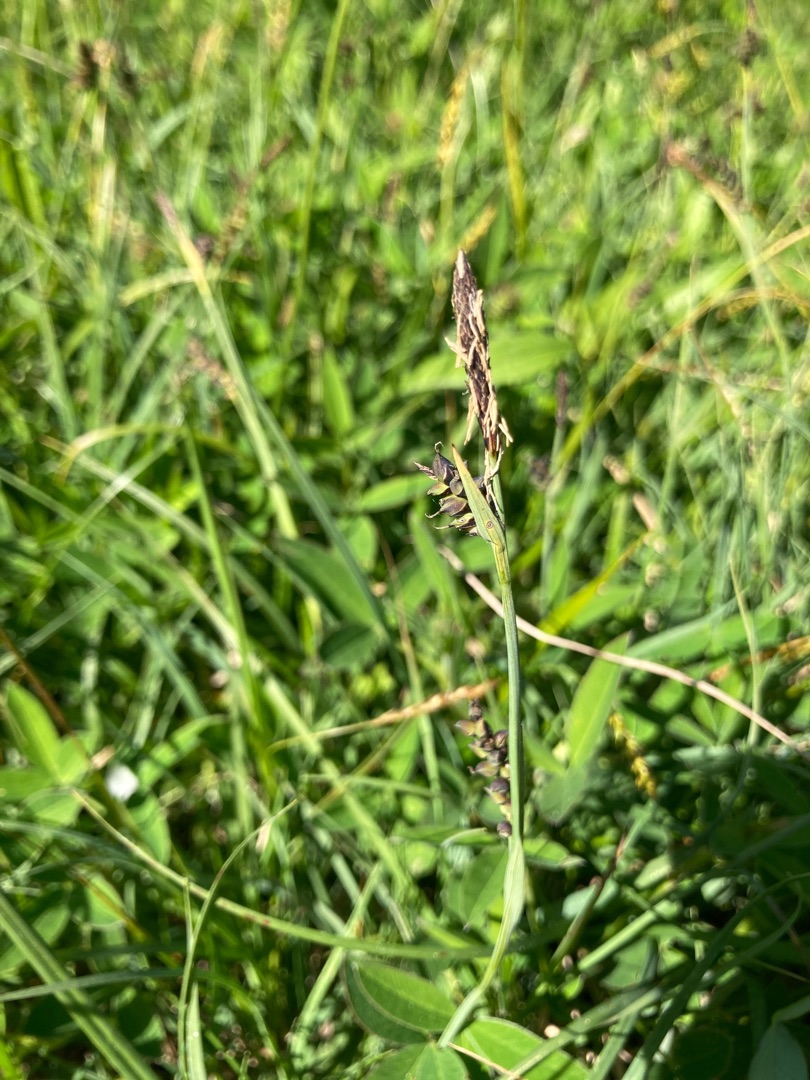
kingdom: Plantae
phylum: Tracheophyta
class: Liliopsida
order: Poales
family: Cyperaceae
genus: Carex
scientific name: Carex panicea
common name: Hirse-star
